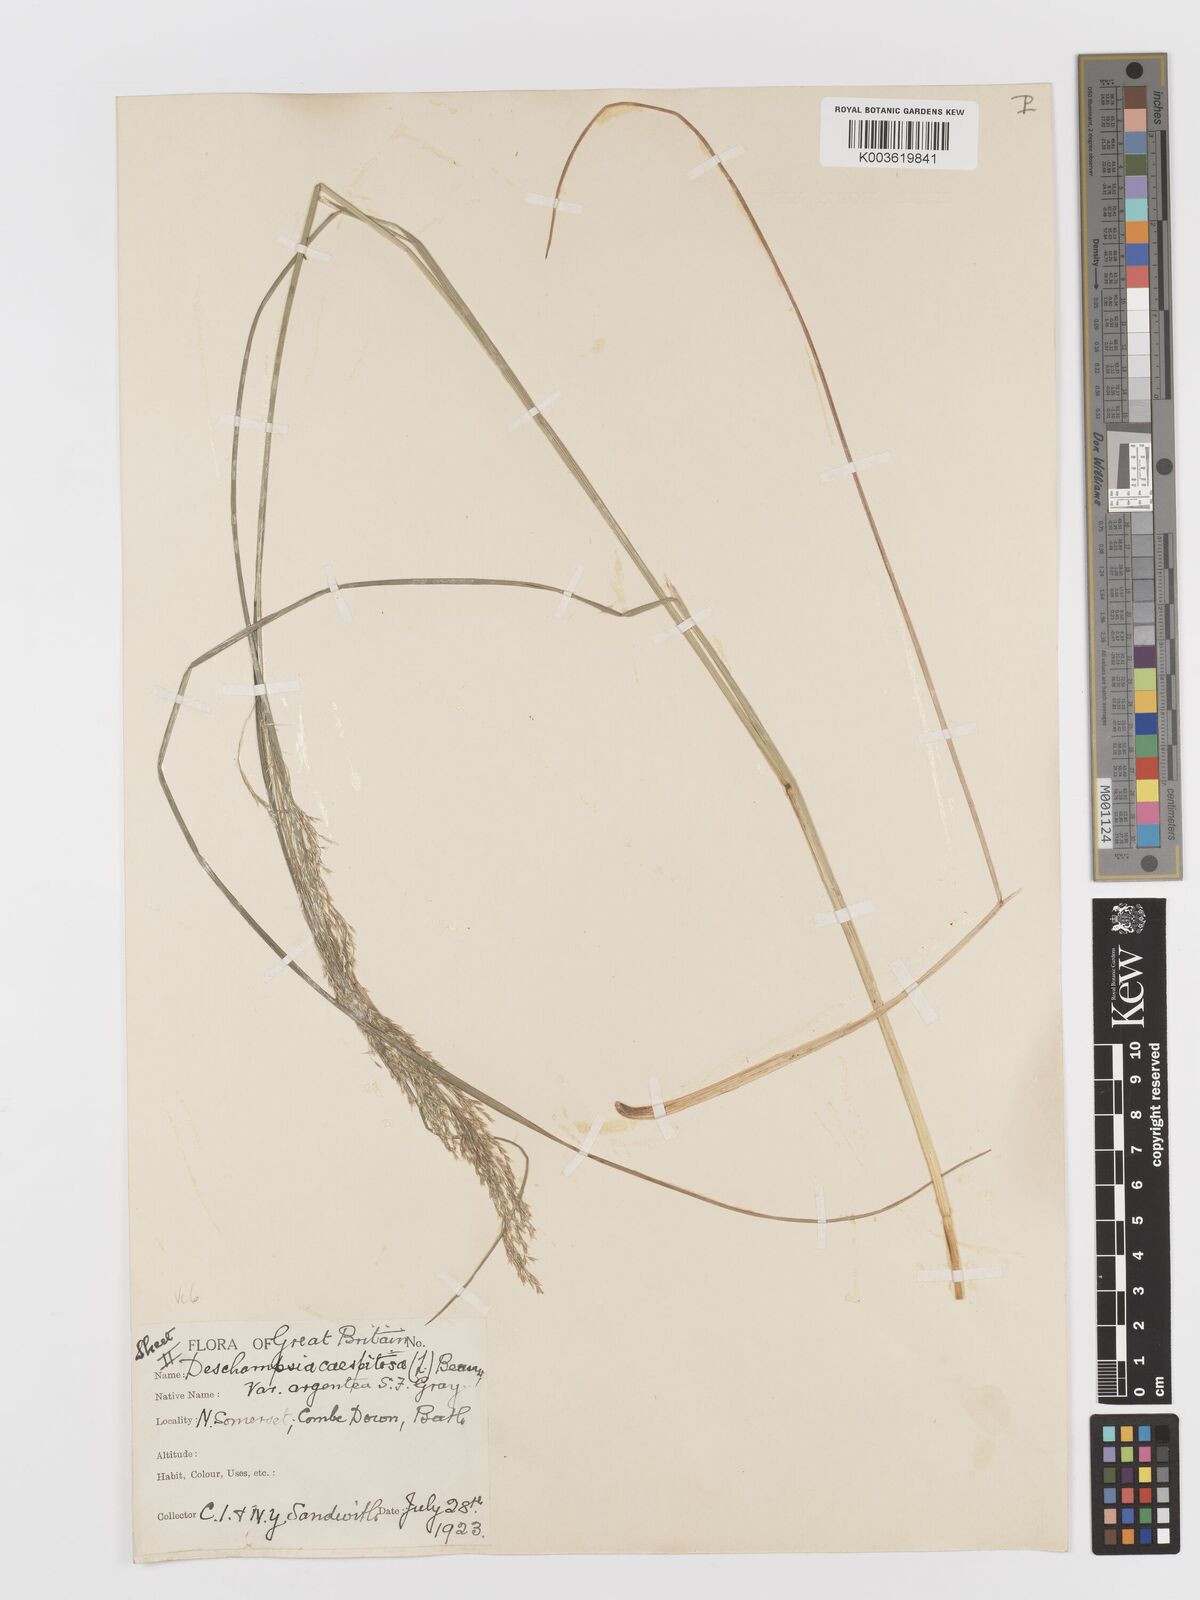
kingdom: Plantae
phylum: Tracheophyta
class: Liliopsida
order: Poales
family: Poaceae
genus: Deschampsia
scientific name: Deschampsia cespitosa
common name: Tufted hair-grass
